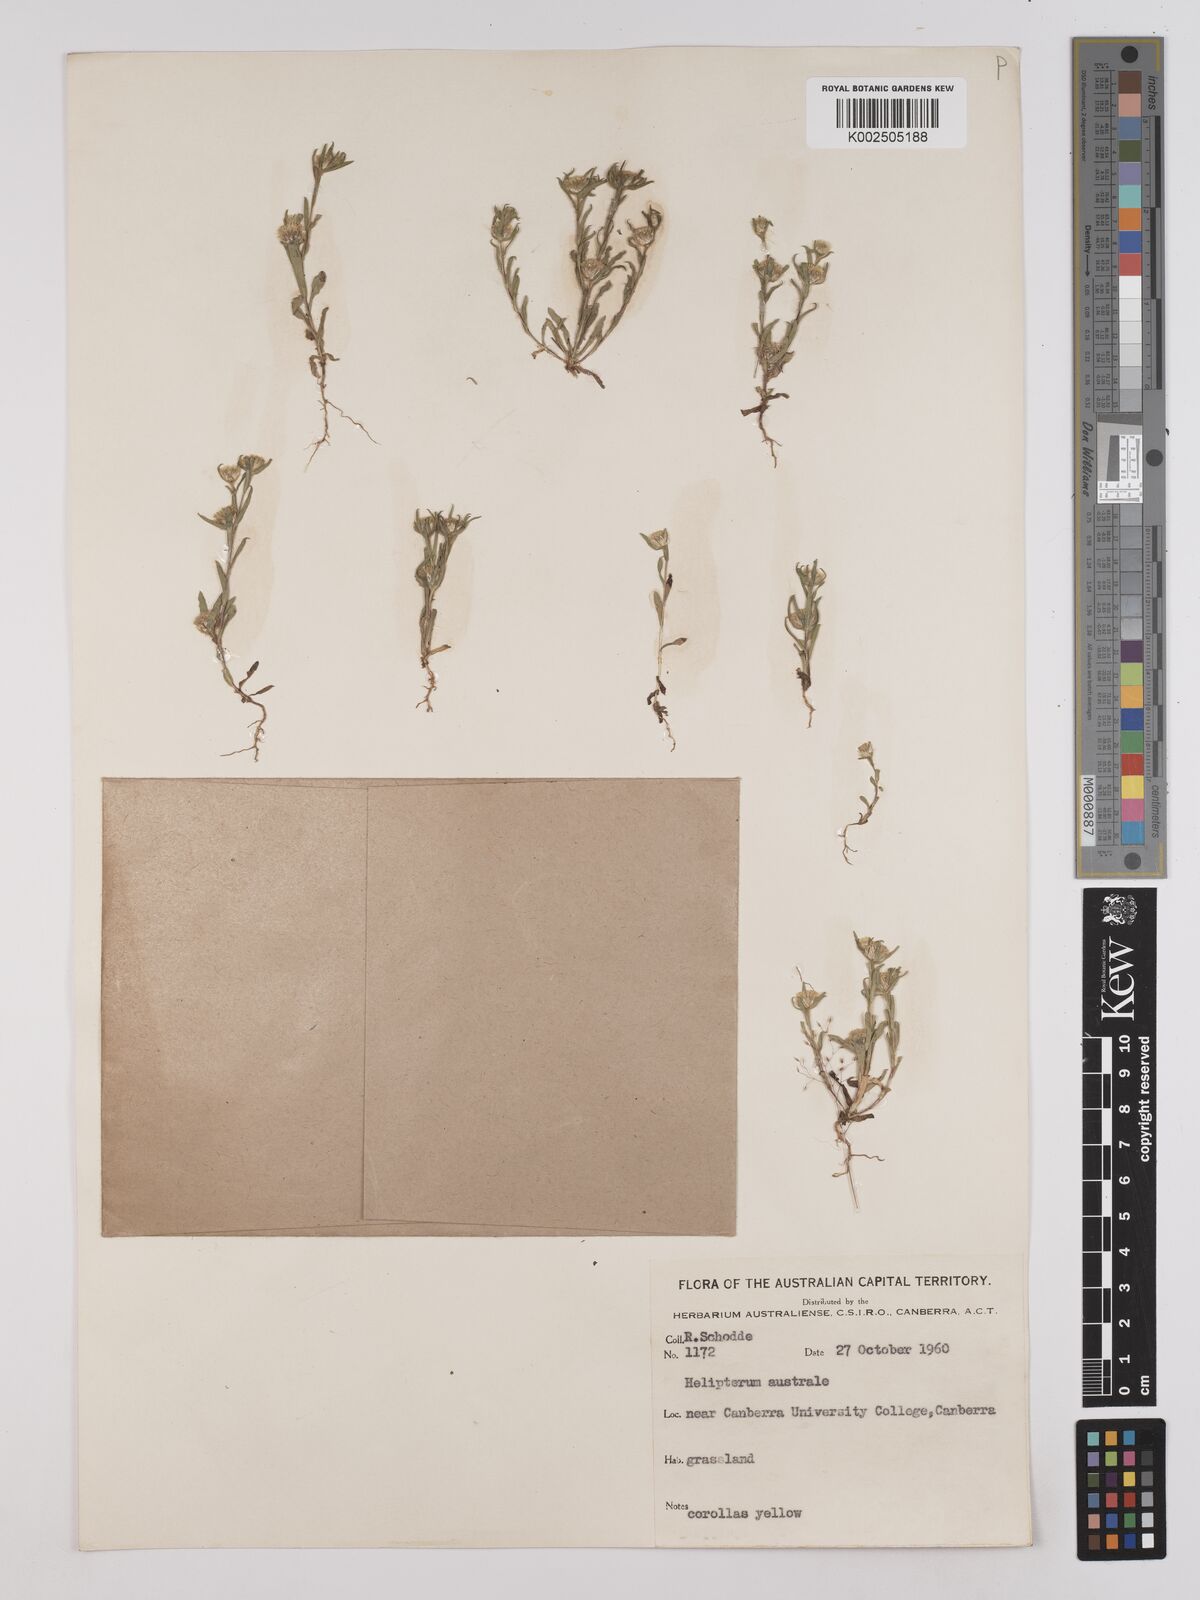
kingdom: Plantae
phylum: Tracheophyta
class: Magnoliopsida
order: Asterales
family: Asteraceae
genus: Triptilodiscus
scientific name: Triptilodiscus pygmaeus
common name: Common sunray
